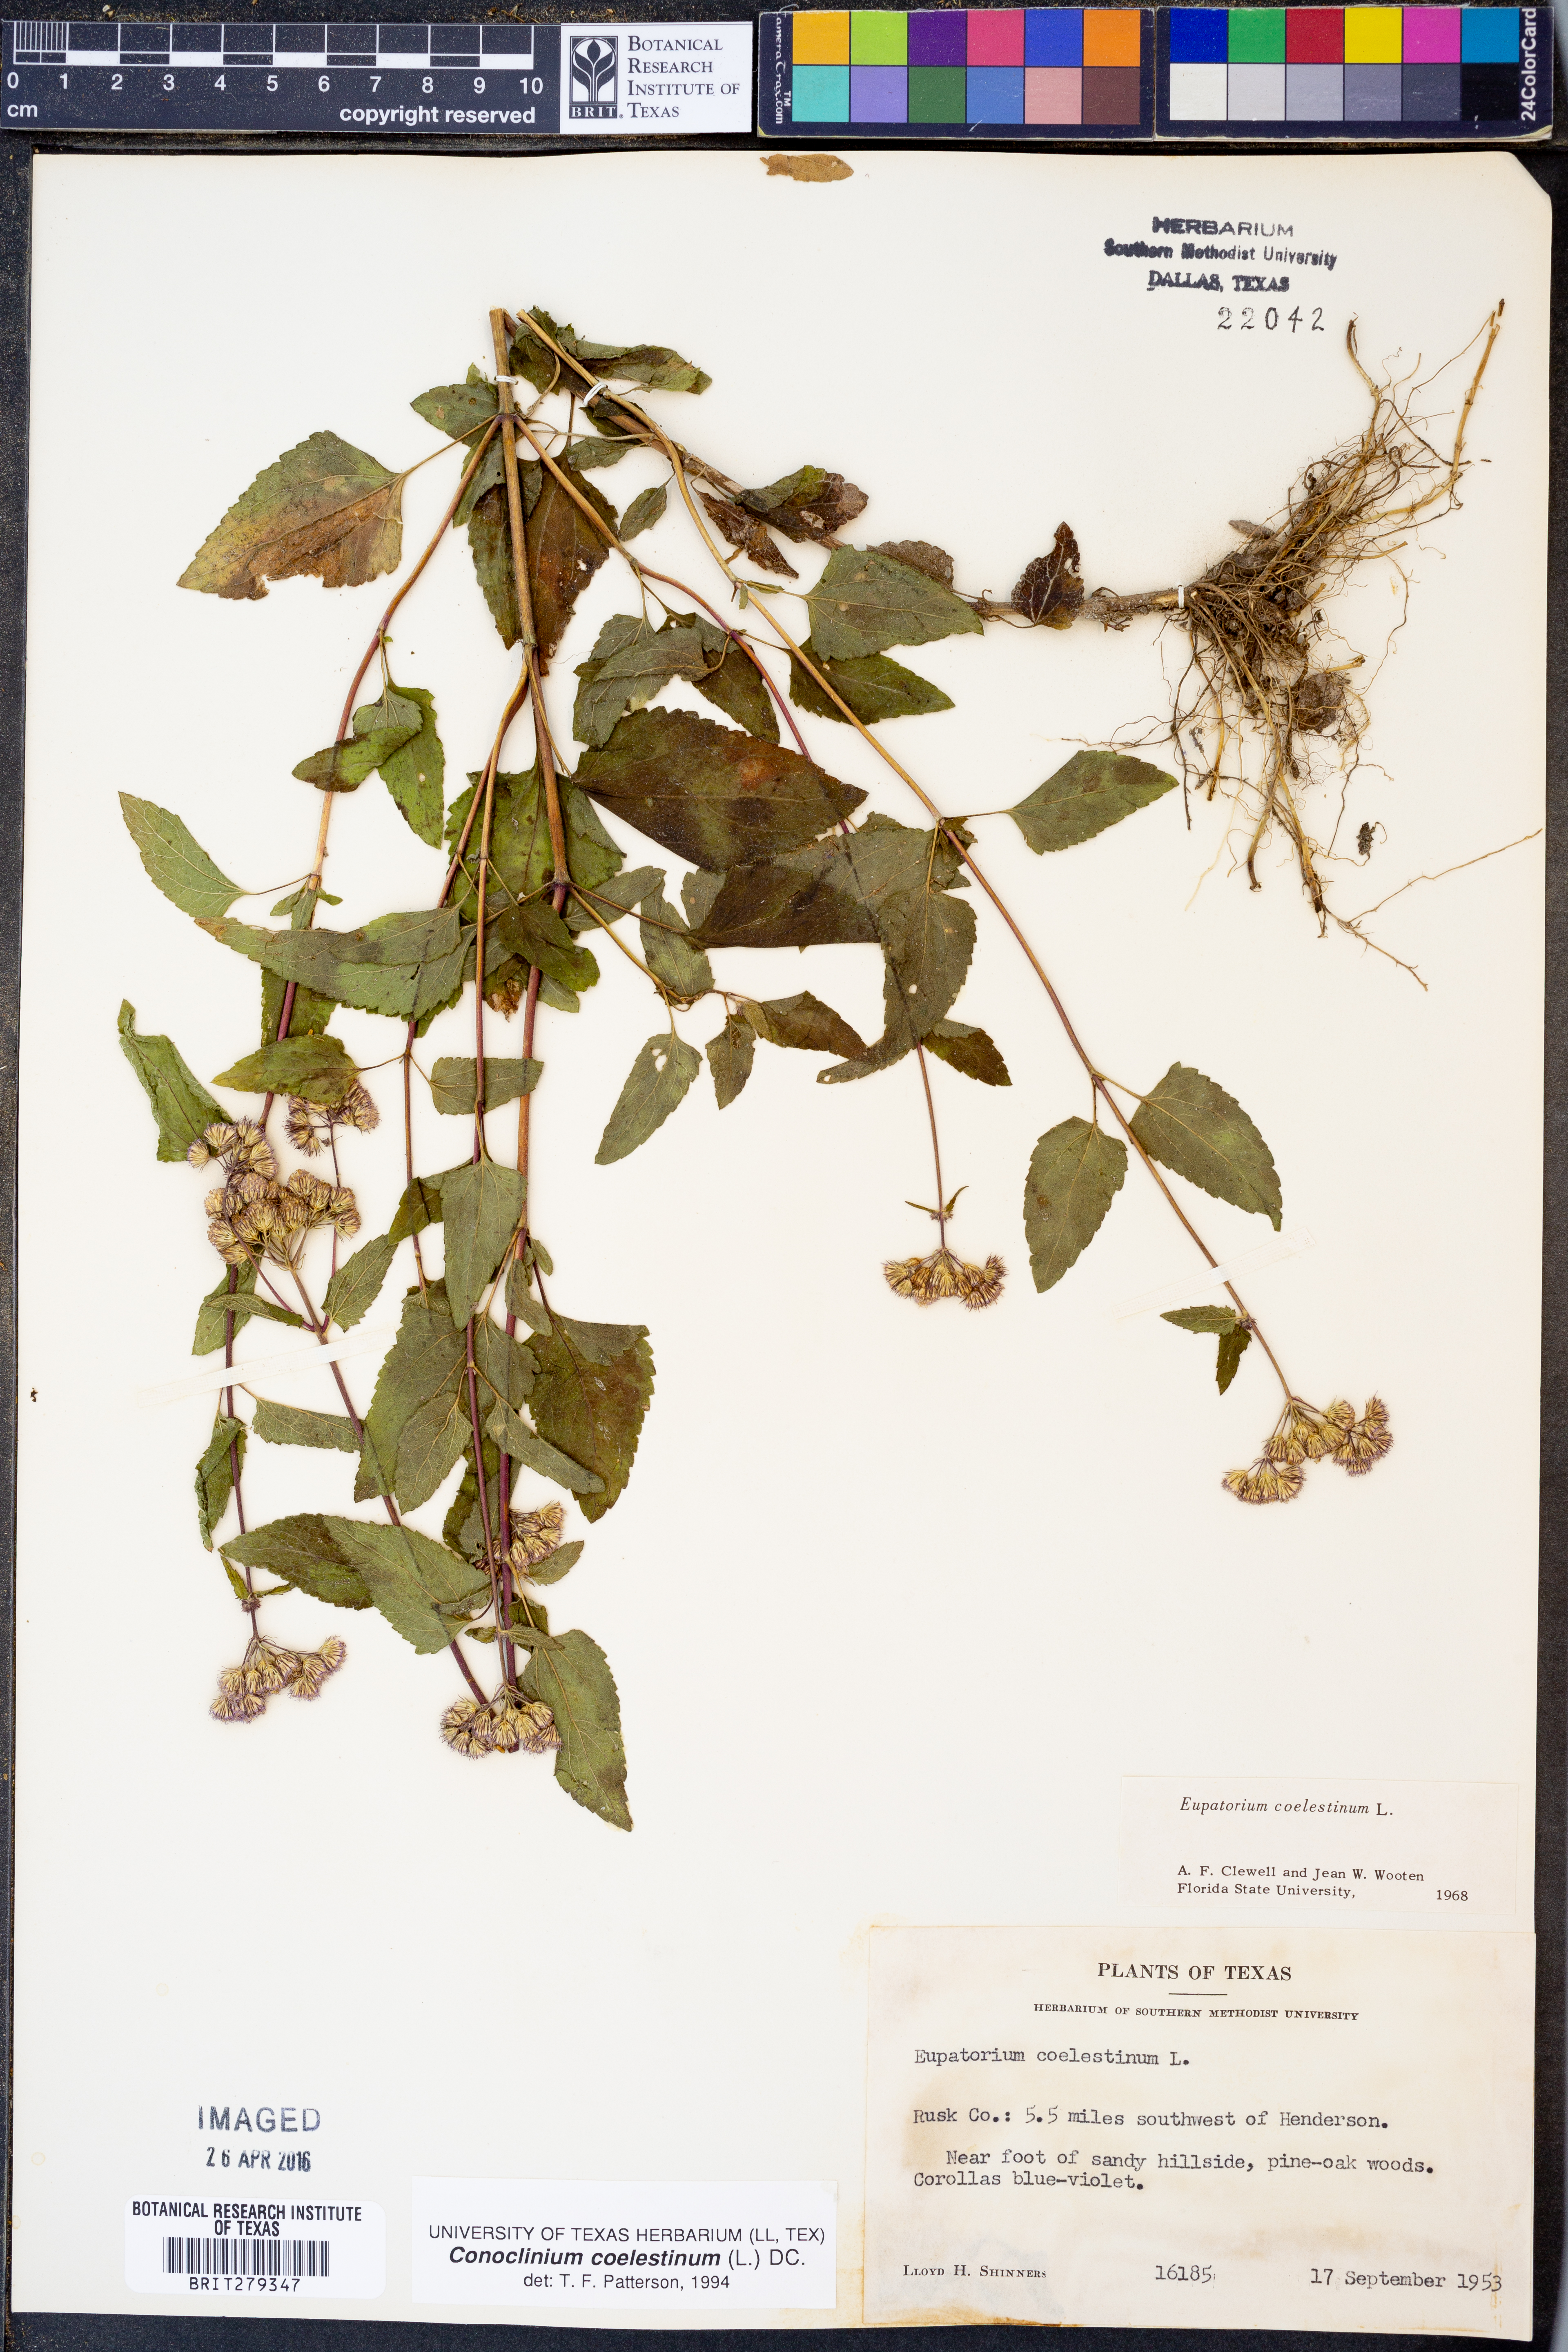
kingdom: Plantae
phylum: Tracheophyta
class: Magnoliopsida
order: Asterales
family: Asteraceae
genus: Conoclinium
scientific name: Conoclinium coelestinum
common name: Blue mistflower
